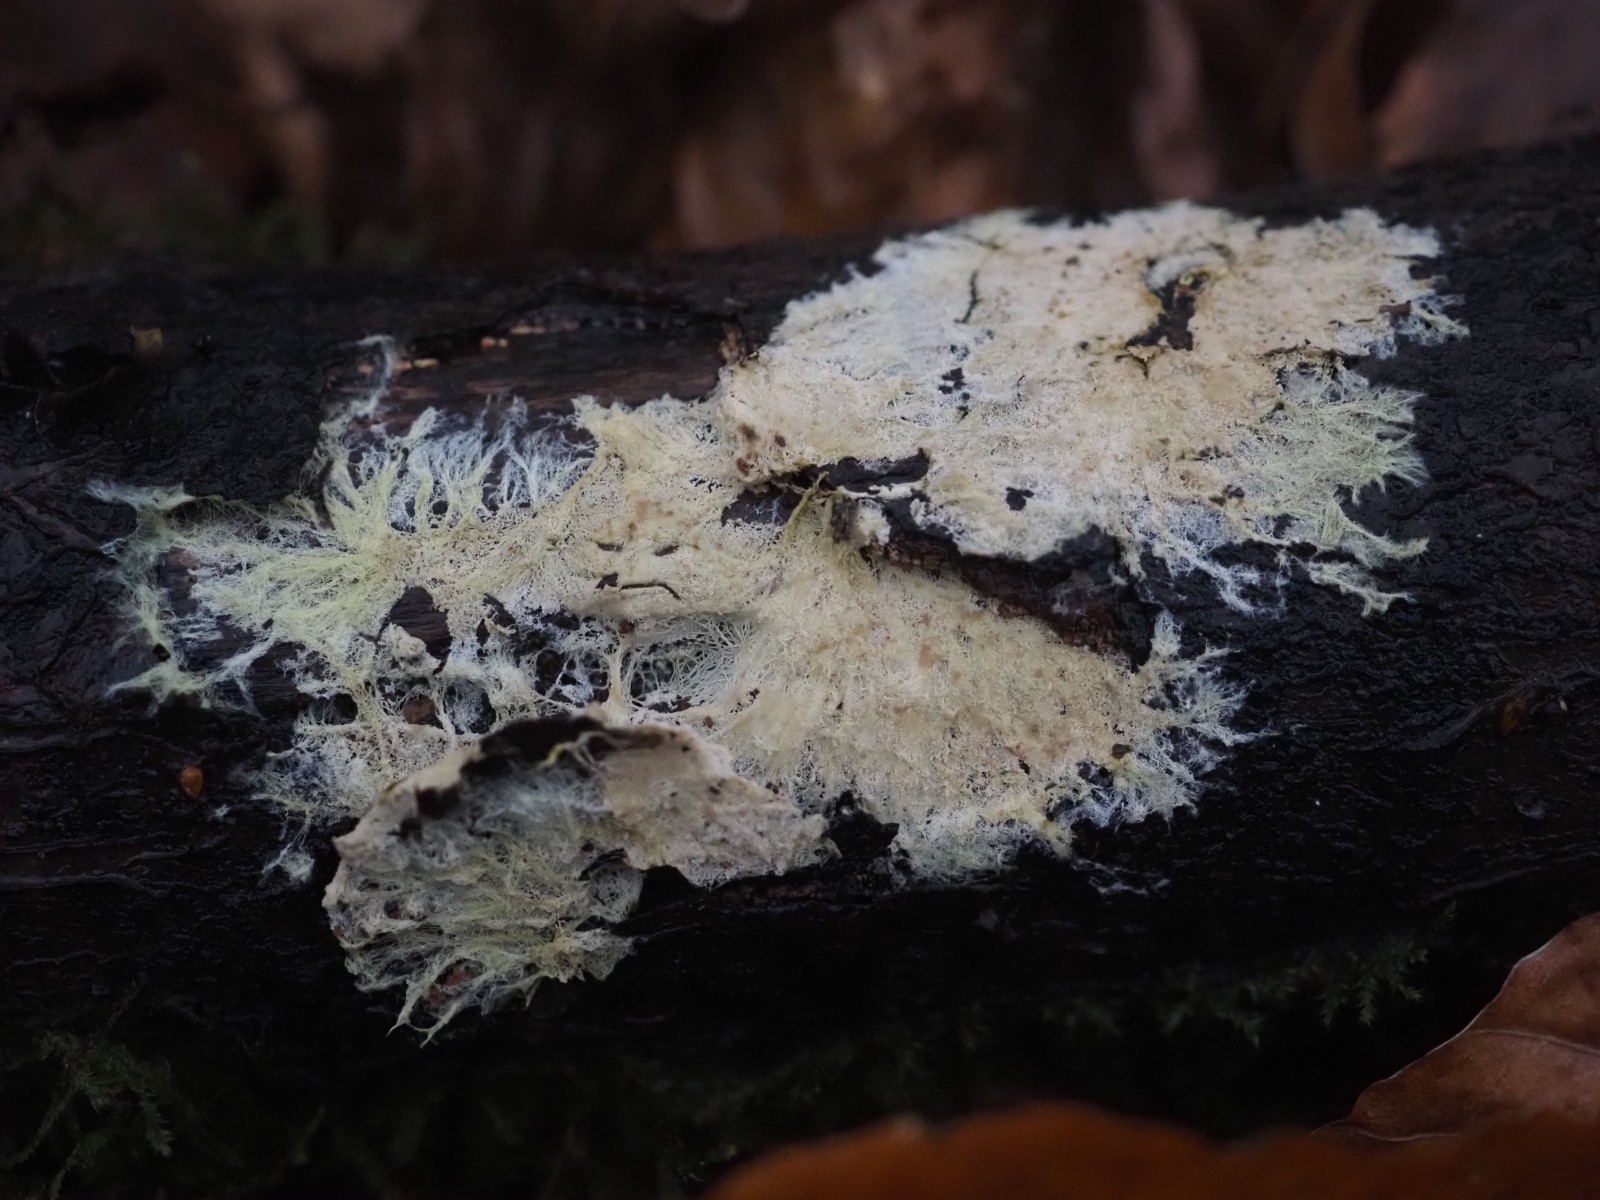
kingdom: Fungi
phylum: Basidiomycota
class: Agaricomycetes
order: Russulales
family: Xenasmataceae
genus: Xenasmatella
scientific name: Xenasmatella vaga
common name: svovl-strenghinde
